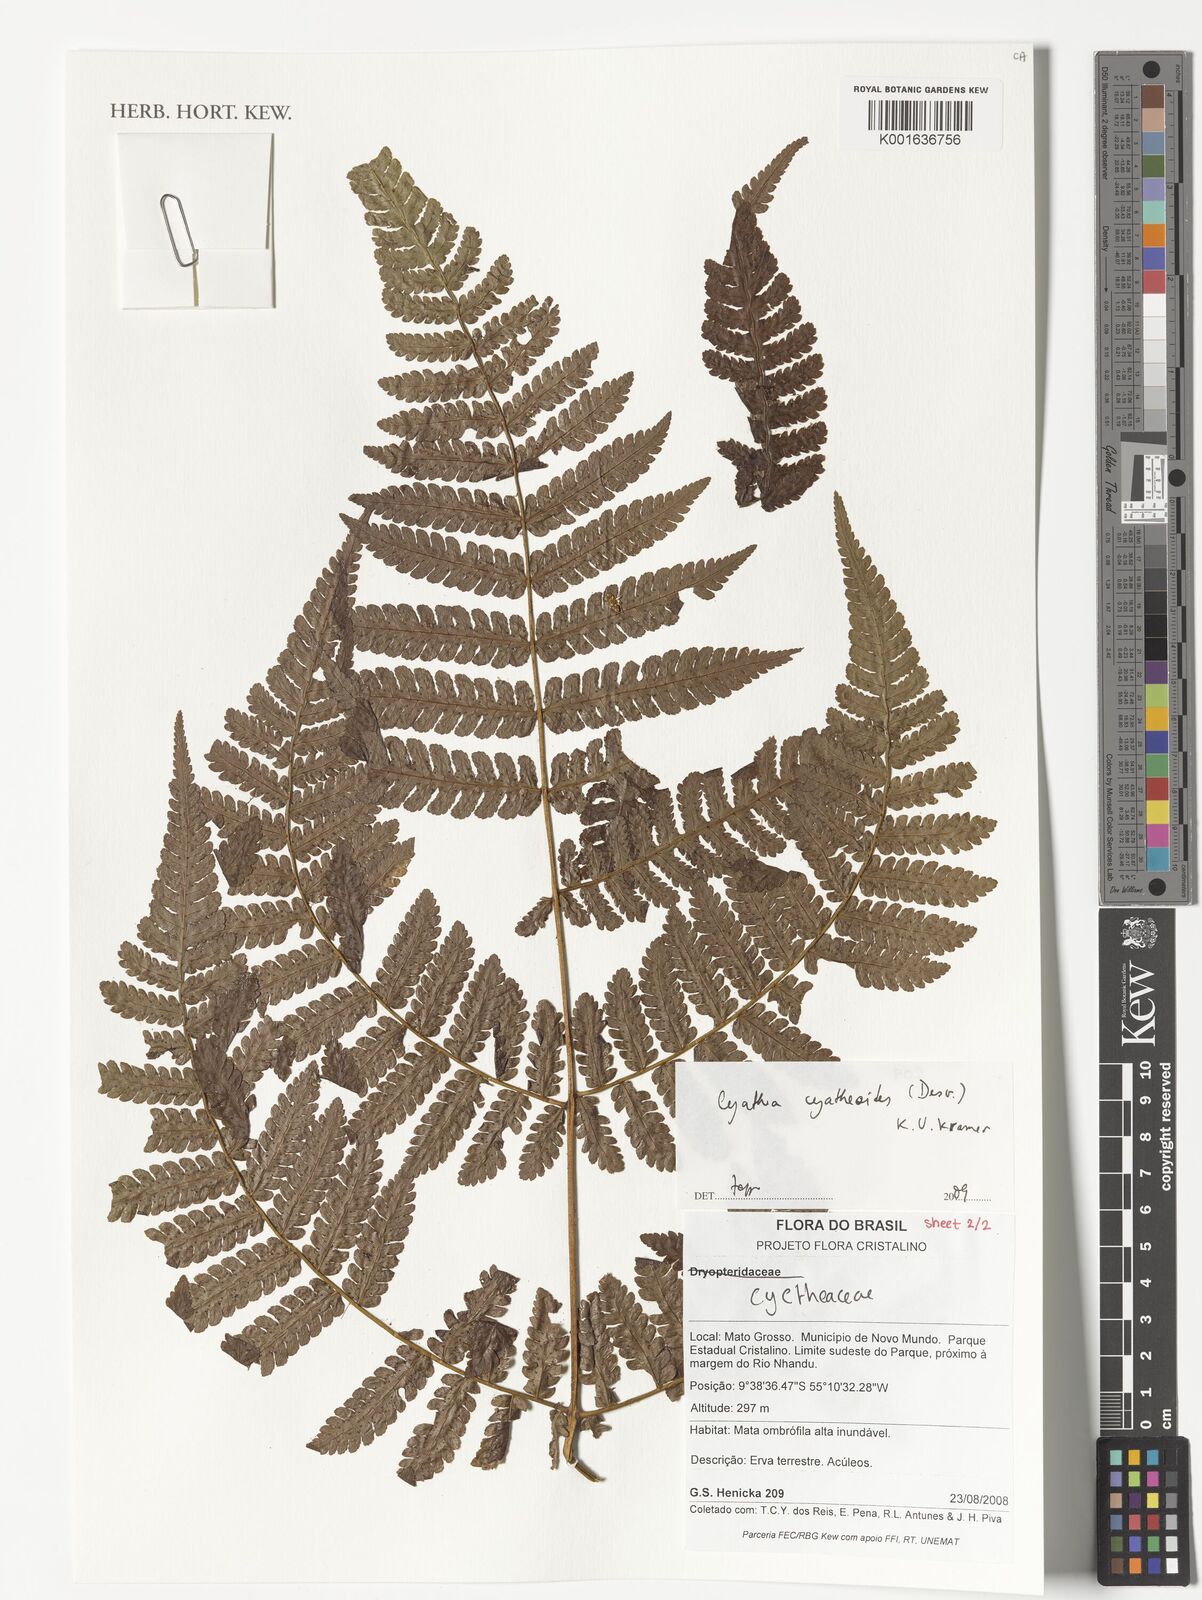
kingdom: Plantae
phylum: Tracheophyta
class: Polypodiopsida
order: Cyatheales
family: Cyatheaceae
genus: Cyathea
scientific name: Cyathea cyatheoides
